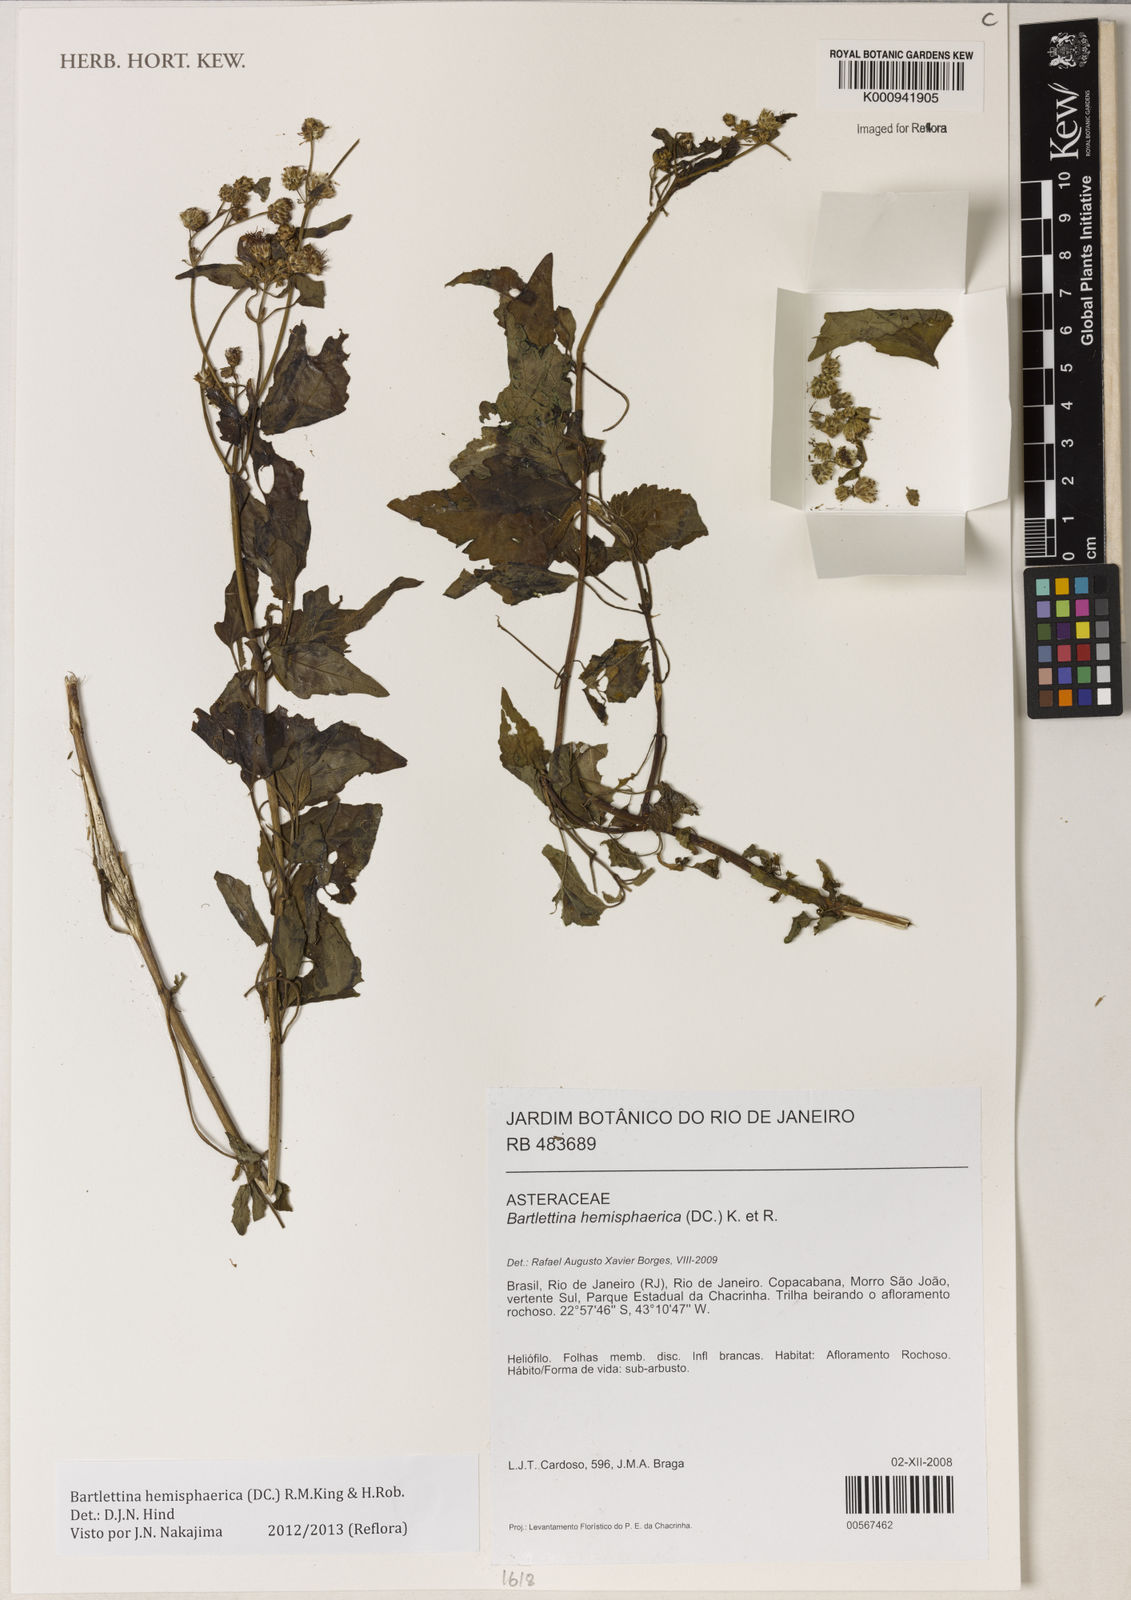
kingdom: Plantae
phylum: Tracheophyta
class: Magnoliopsida
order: Asterales
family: Asteraceae
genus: Bartlettina
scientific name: Bartlettina conspicua
